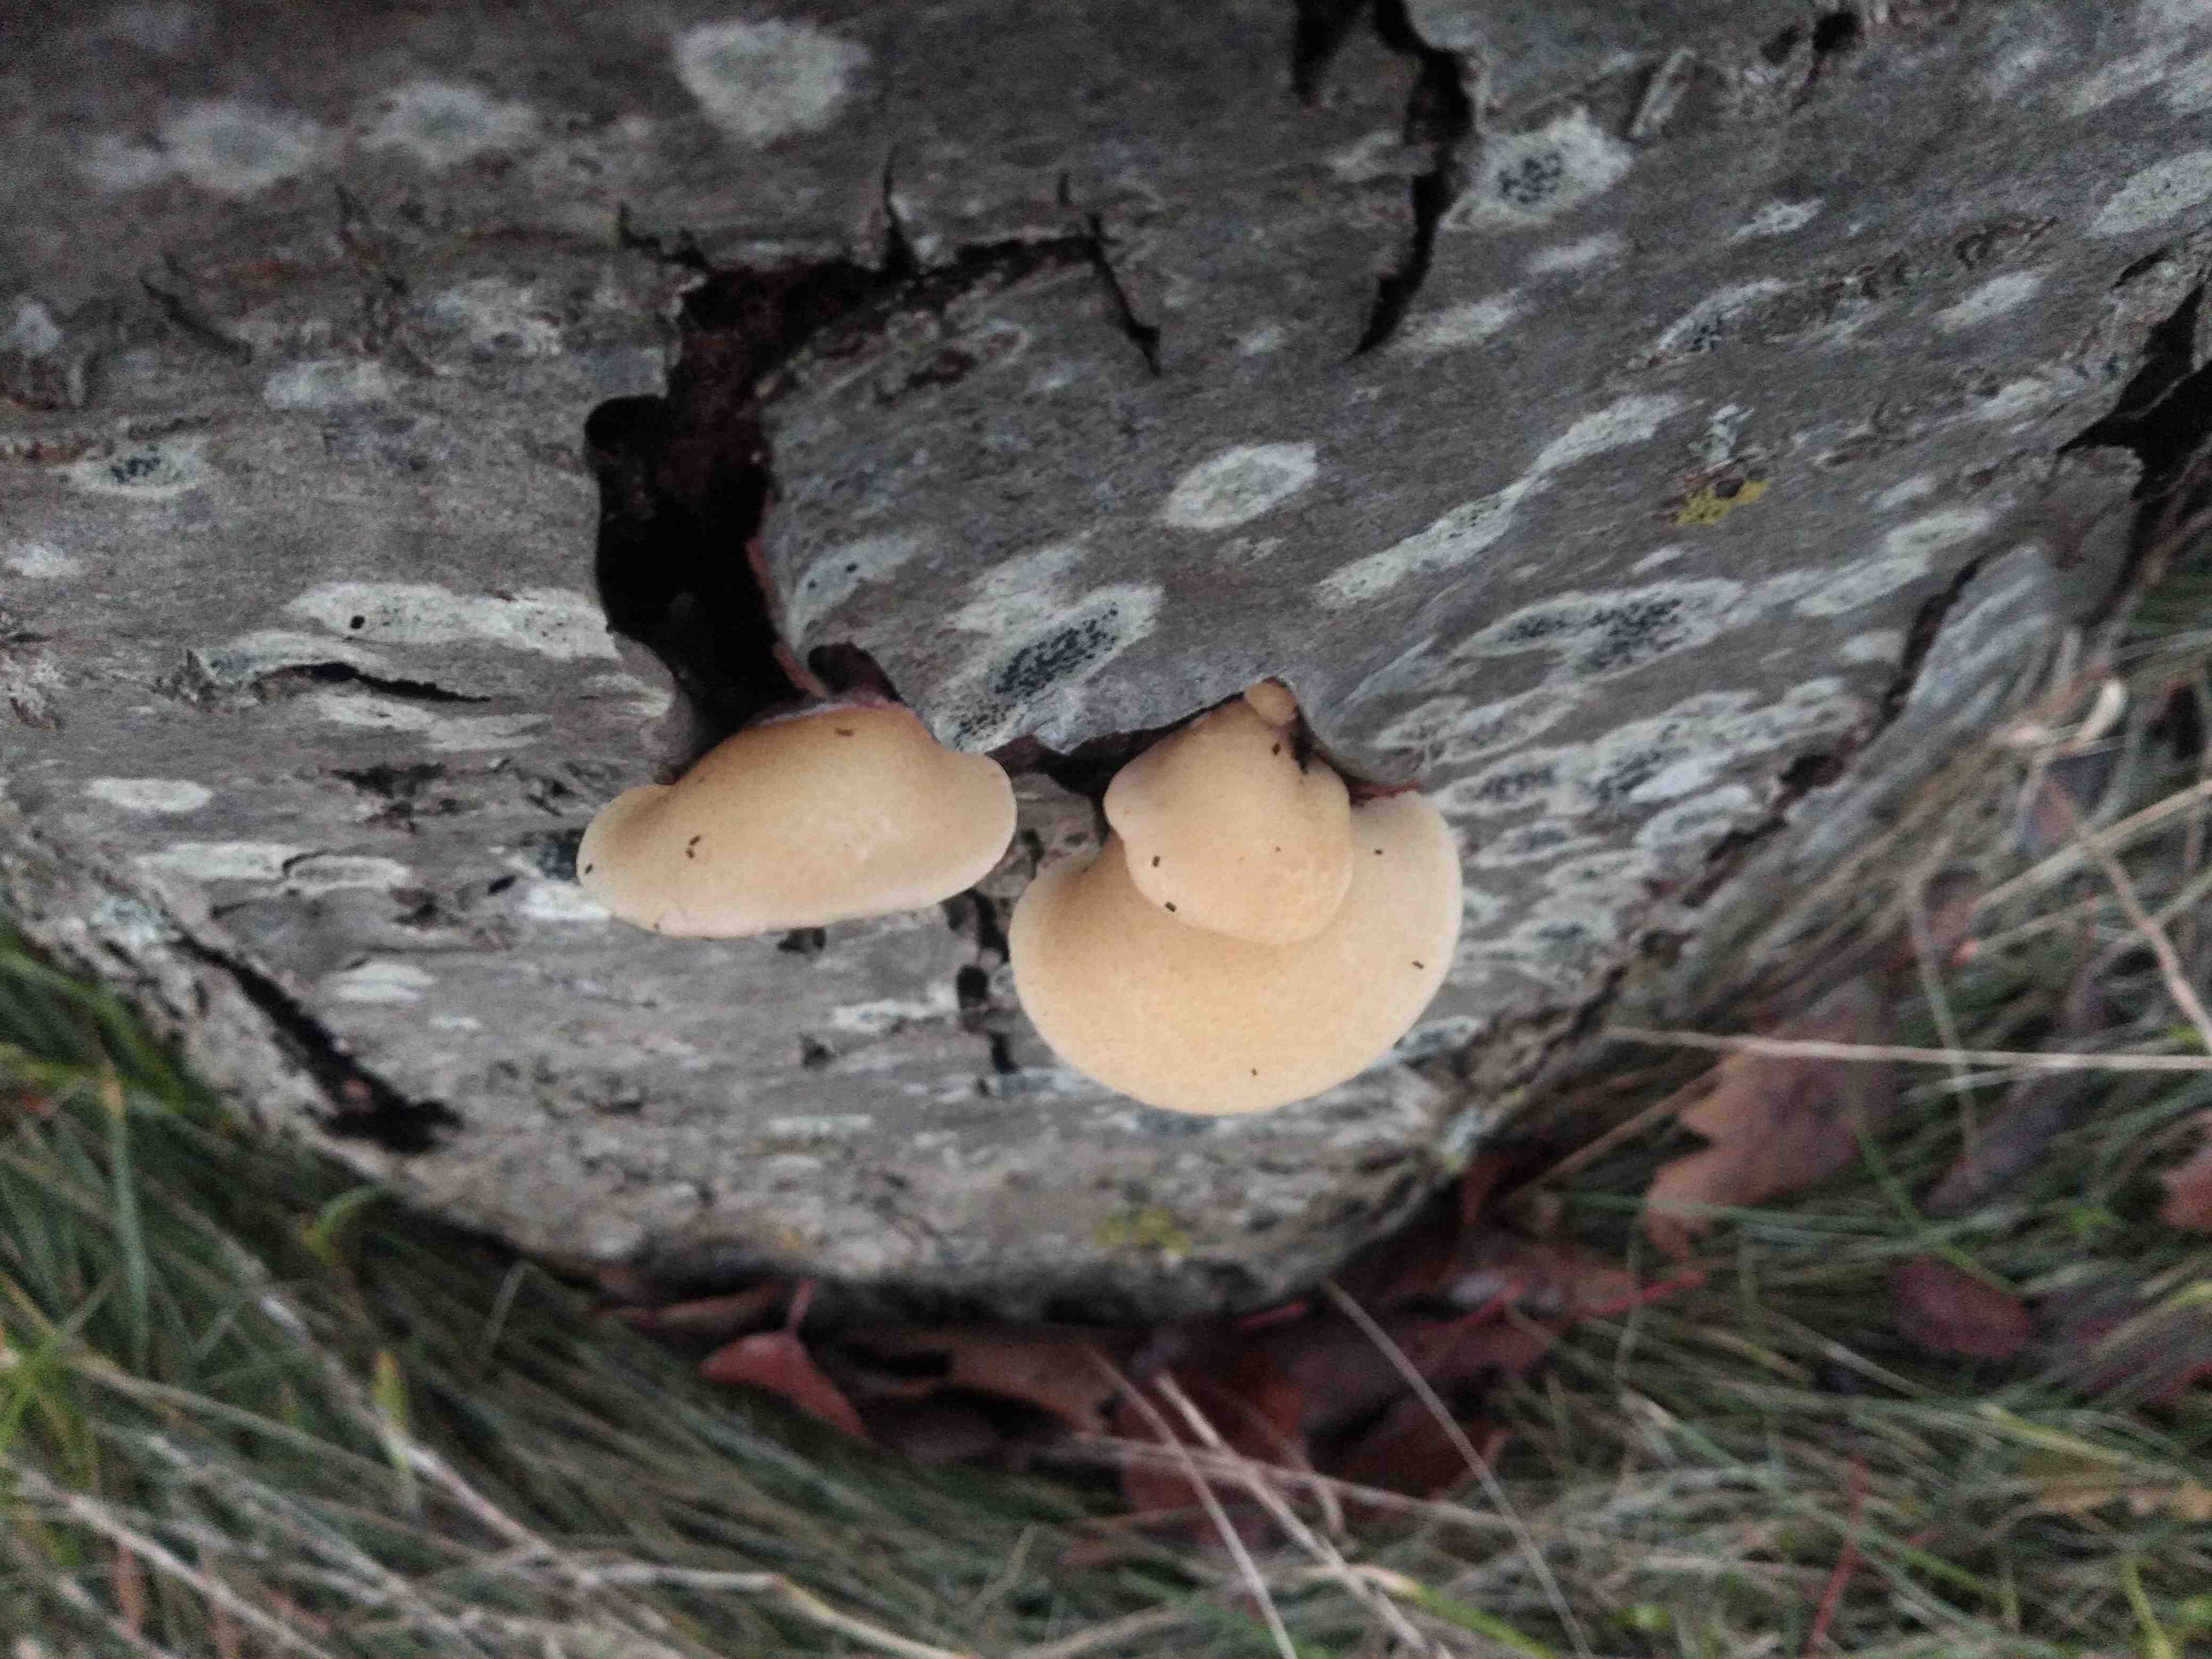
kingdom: Fungi
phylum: Basidiomycota
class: Agaricomycetes
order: Agaricales
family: Crepidotaceae
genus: Crepidotus
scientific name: Crepidotus mollis
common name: blød muslingesvamp
